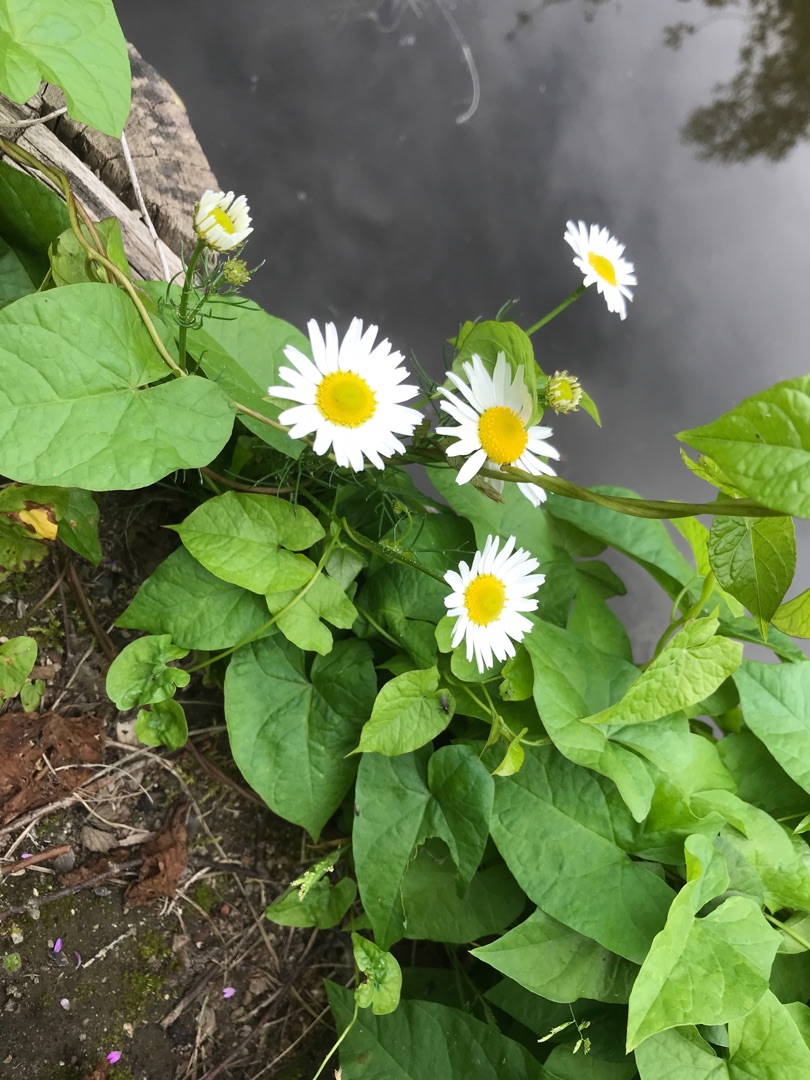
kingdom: Plantae
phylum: Tracheophyta
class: Magnoliopsida
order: Asterales
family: Asteraceae
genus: Tripleurospermum
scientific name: Tripleurospermum inodorum
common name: Lugtløs kamille
